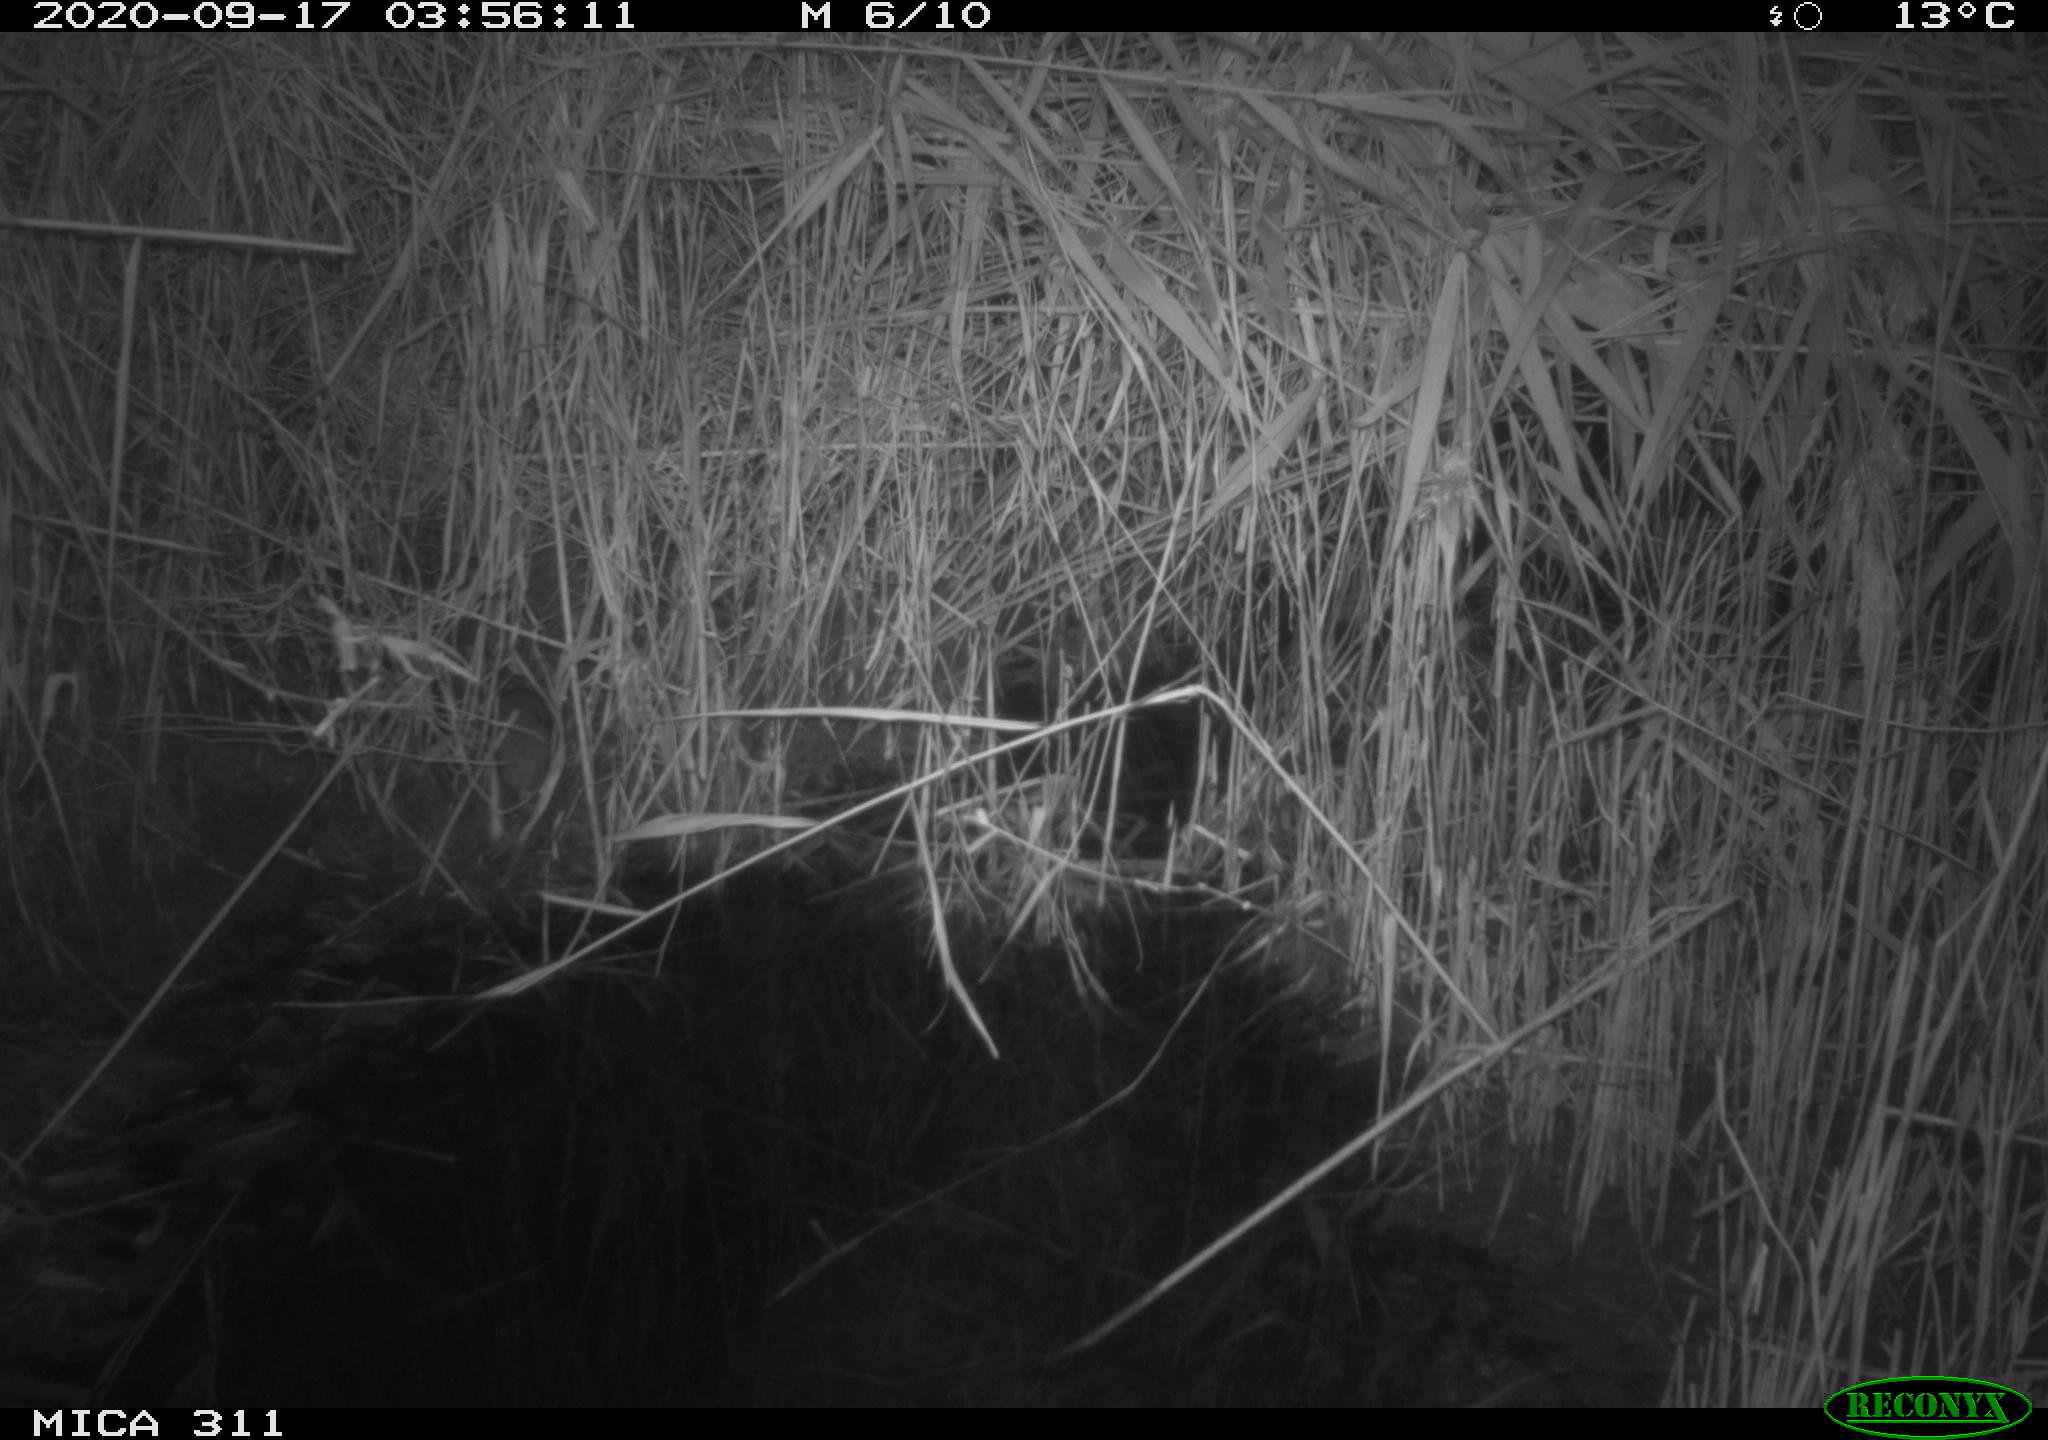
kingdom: Animalia
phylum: Chordata
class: Mammalia
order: Rodentia
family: Muridae
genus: Rattus
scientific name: Rattus norvegicus
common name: Brown rat
